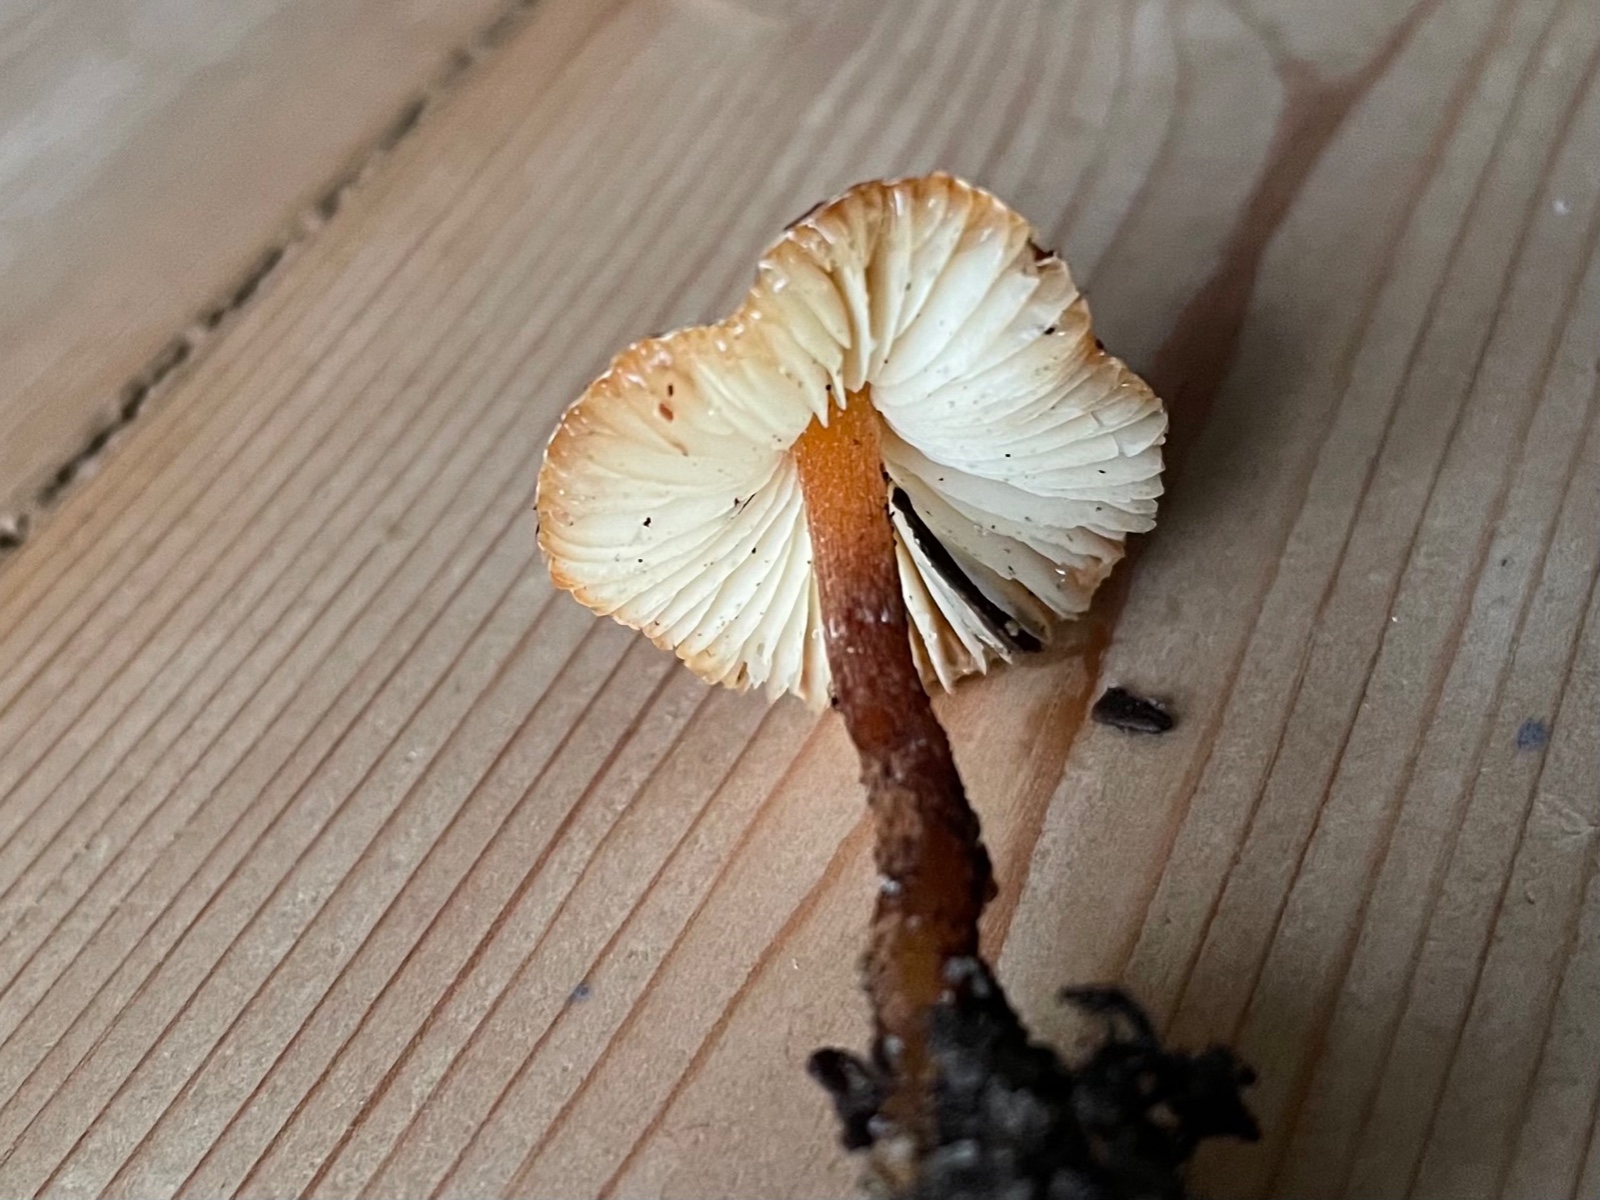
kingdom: Fungi
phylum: Basidiomycota
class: Agaricomycetes
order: Agaricales
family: Agaricaceae
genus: Lepiota
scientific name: Lepiota castanea
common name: kastaniebrun parasolhat
